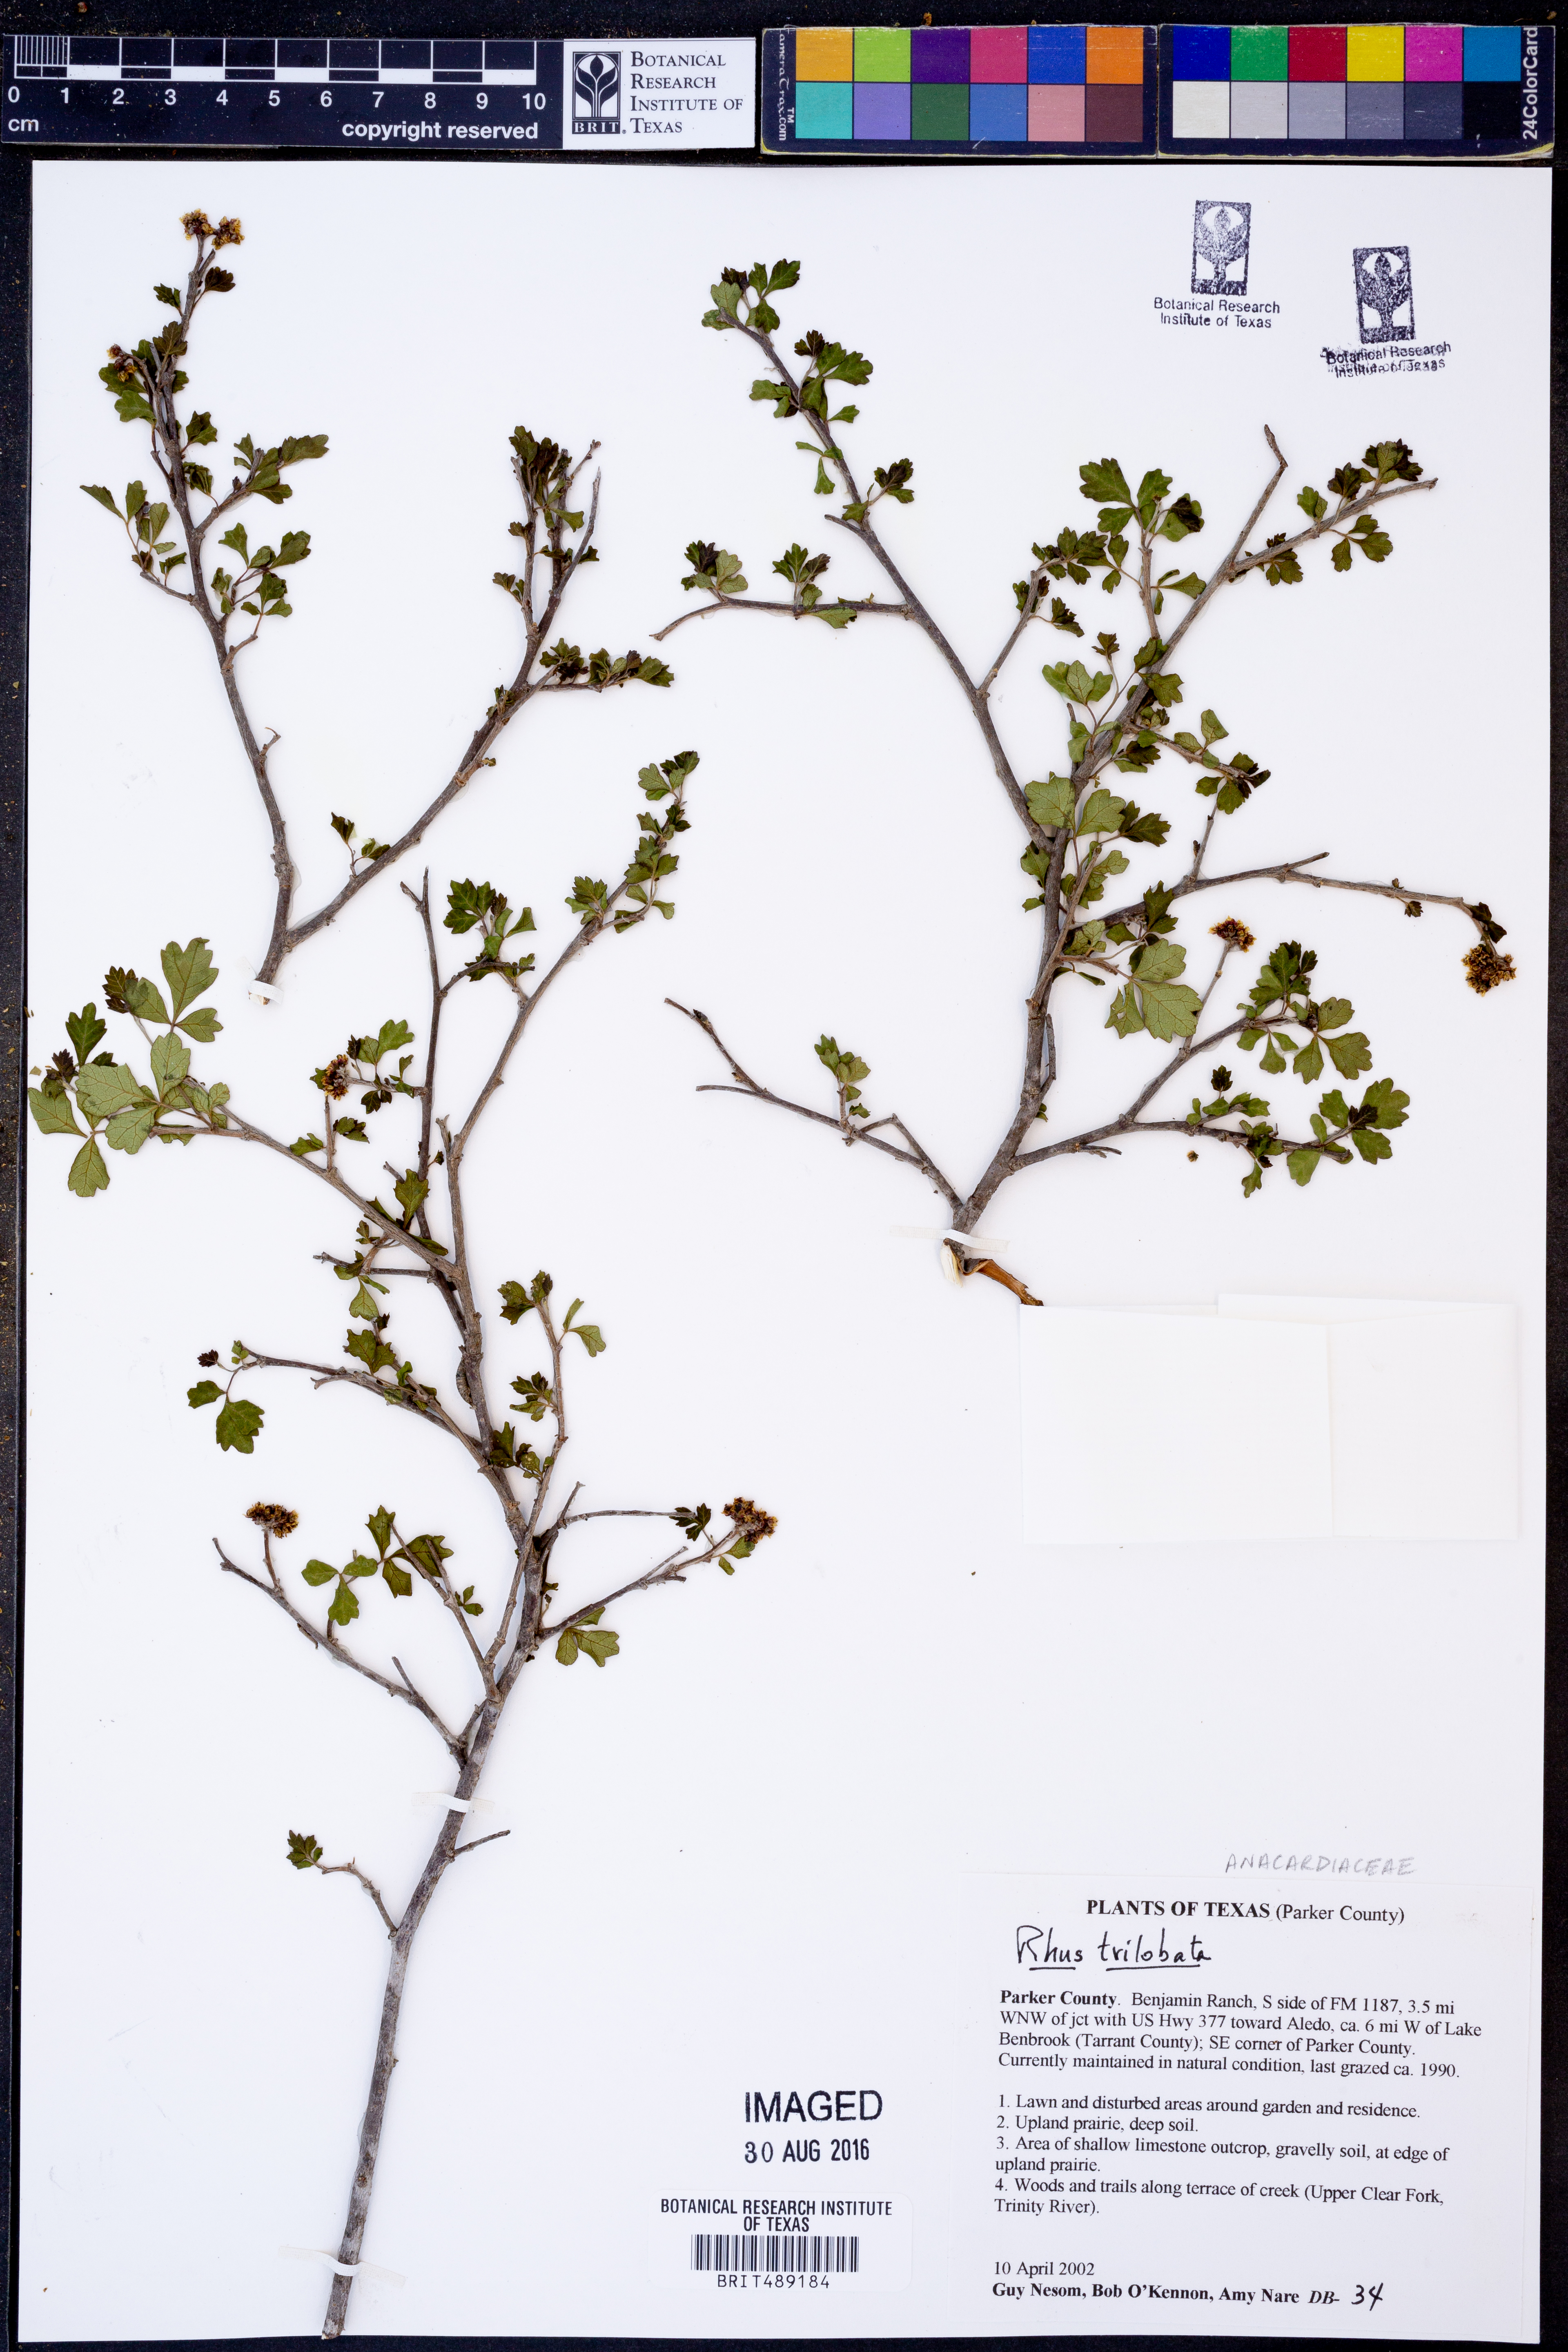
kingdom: Plantae
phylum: Tracheophyta
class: Magnoliopsida
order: Sapindales
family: Anacardiaceae
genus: Rhus
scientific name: Rhus trilobata
